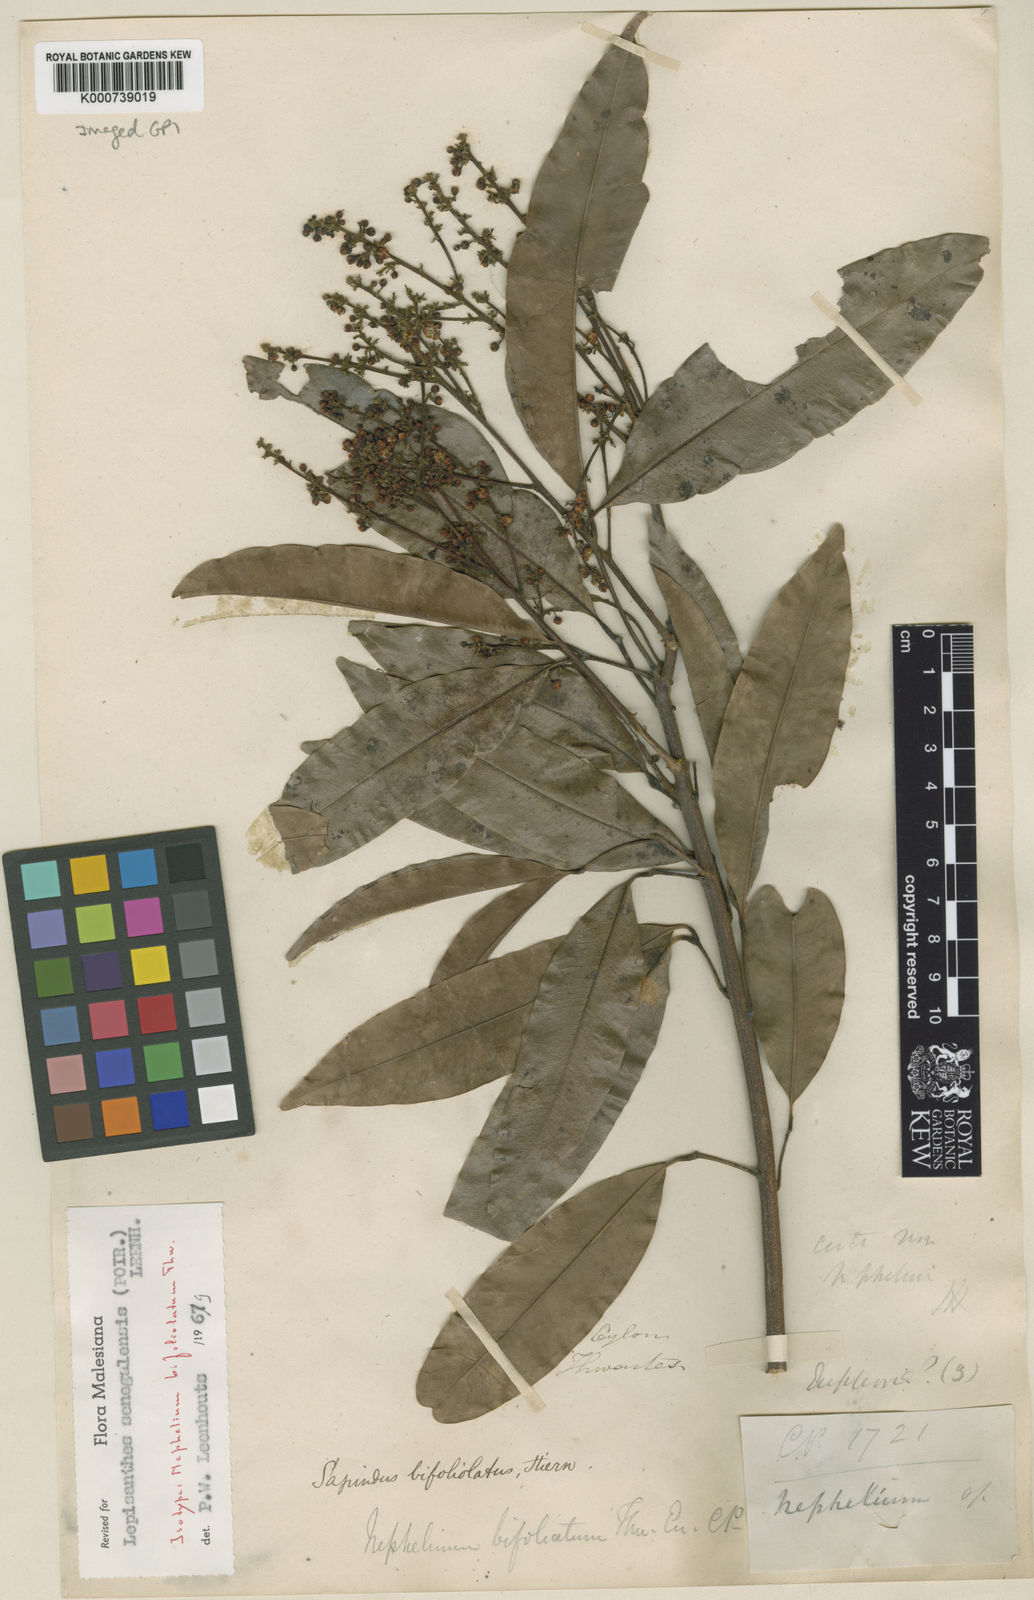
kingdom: Plantae
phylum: Tracheophyta
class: Magnoliopsida
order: Sapindales
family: Sapindaceae
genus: Lepisanthes
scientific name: Lepisanthes senegalensis
